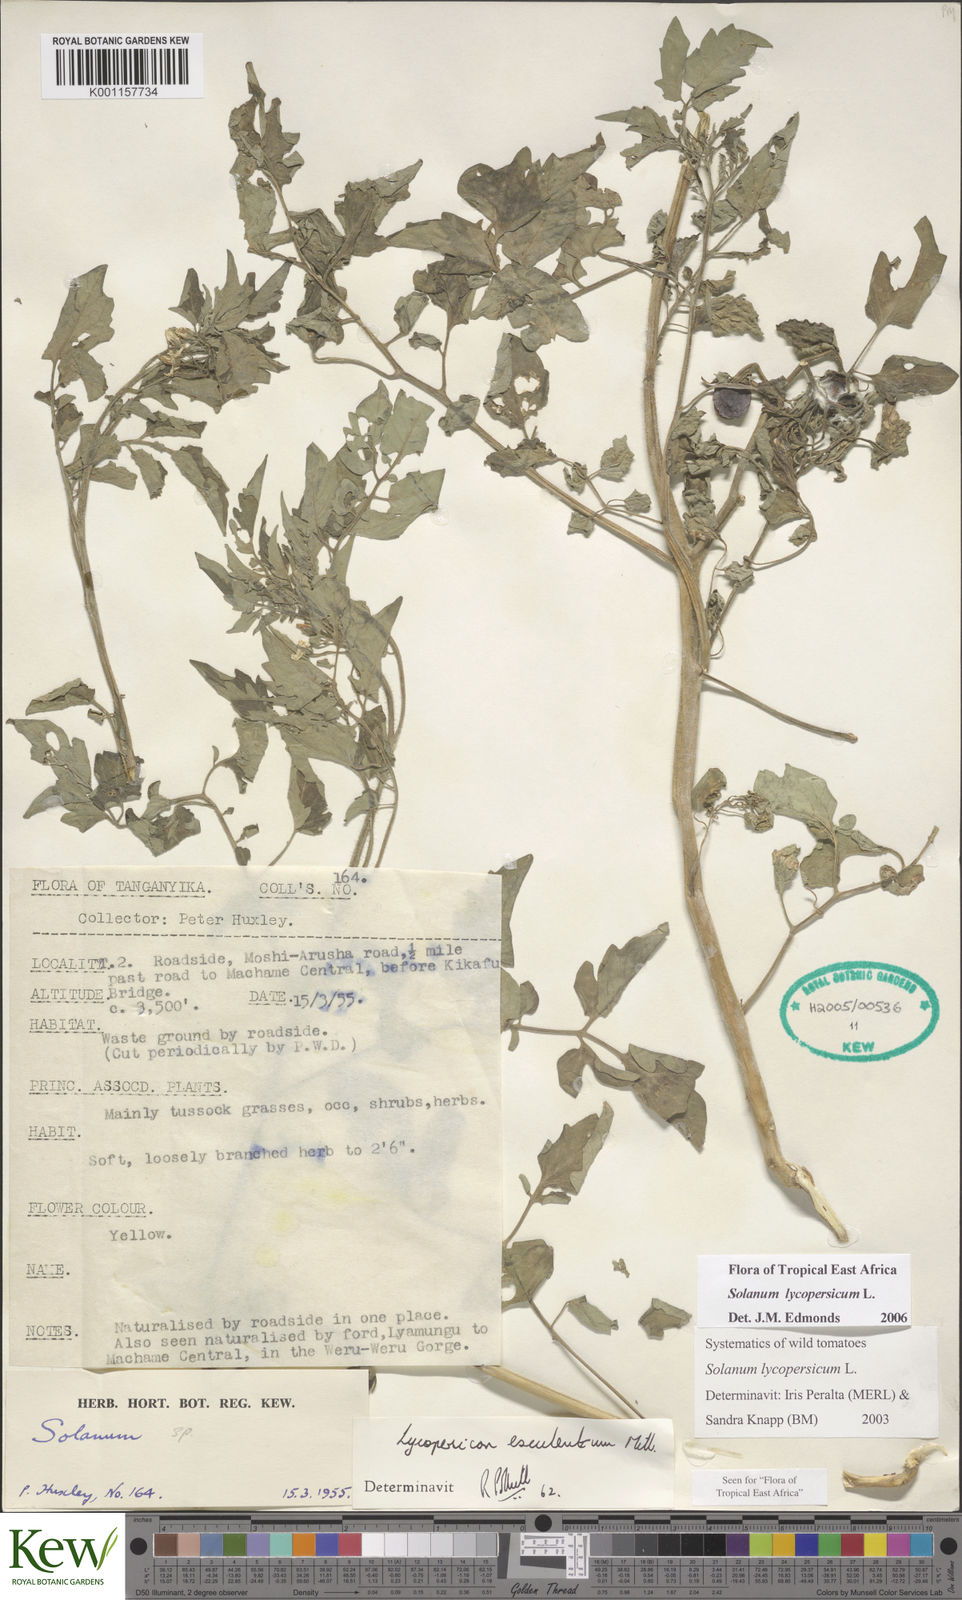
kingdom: Plantae
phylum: Tracheophyta
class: Magnoliopsida
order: Solanales
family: Solanaceae
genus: Solanum
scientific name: Solanum lycopersicum
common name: Garden tomato
